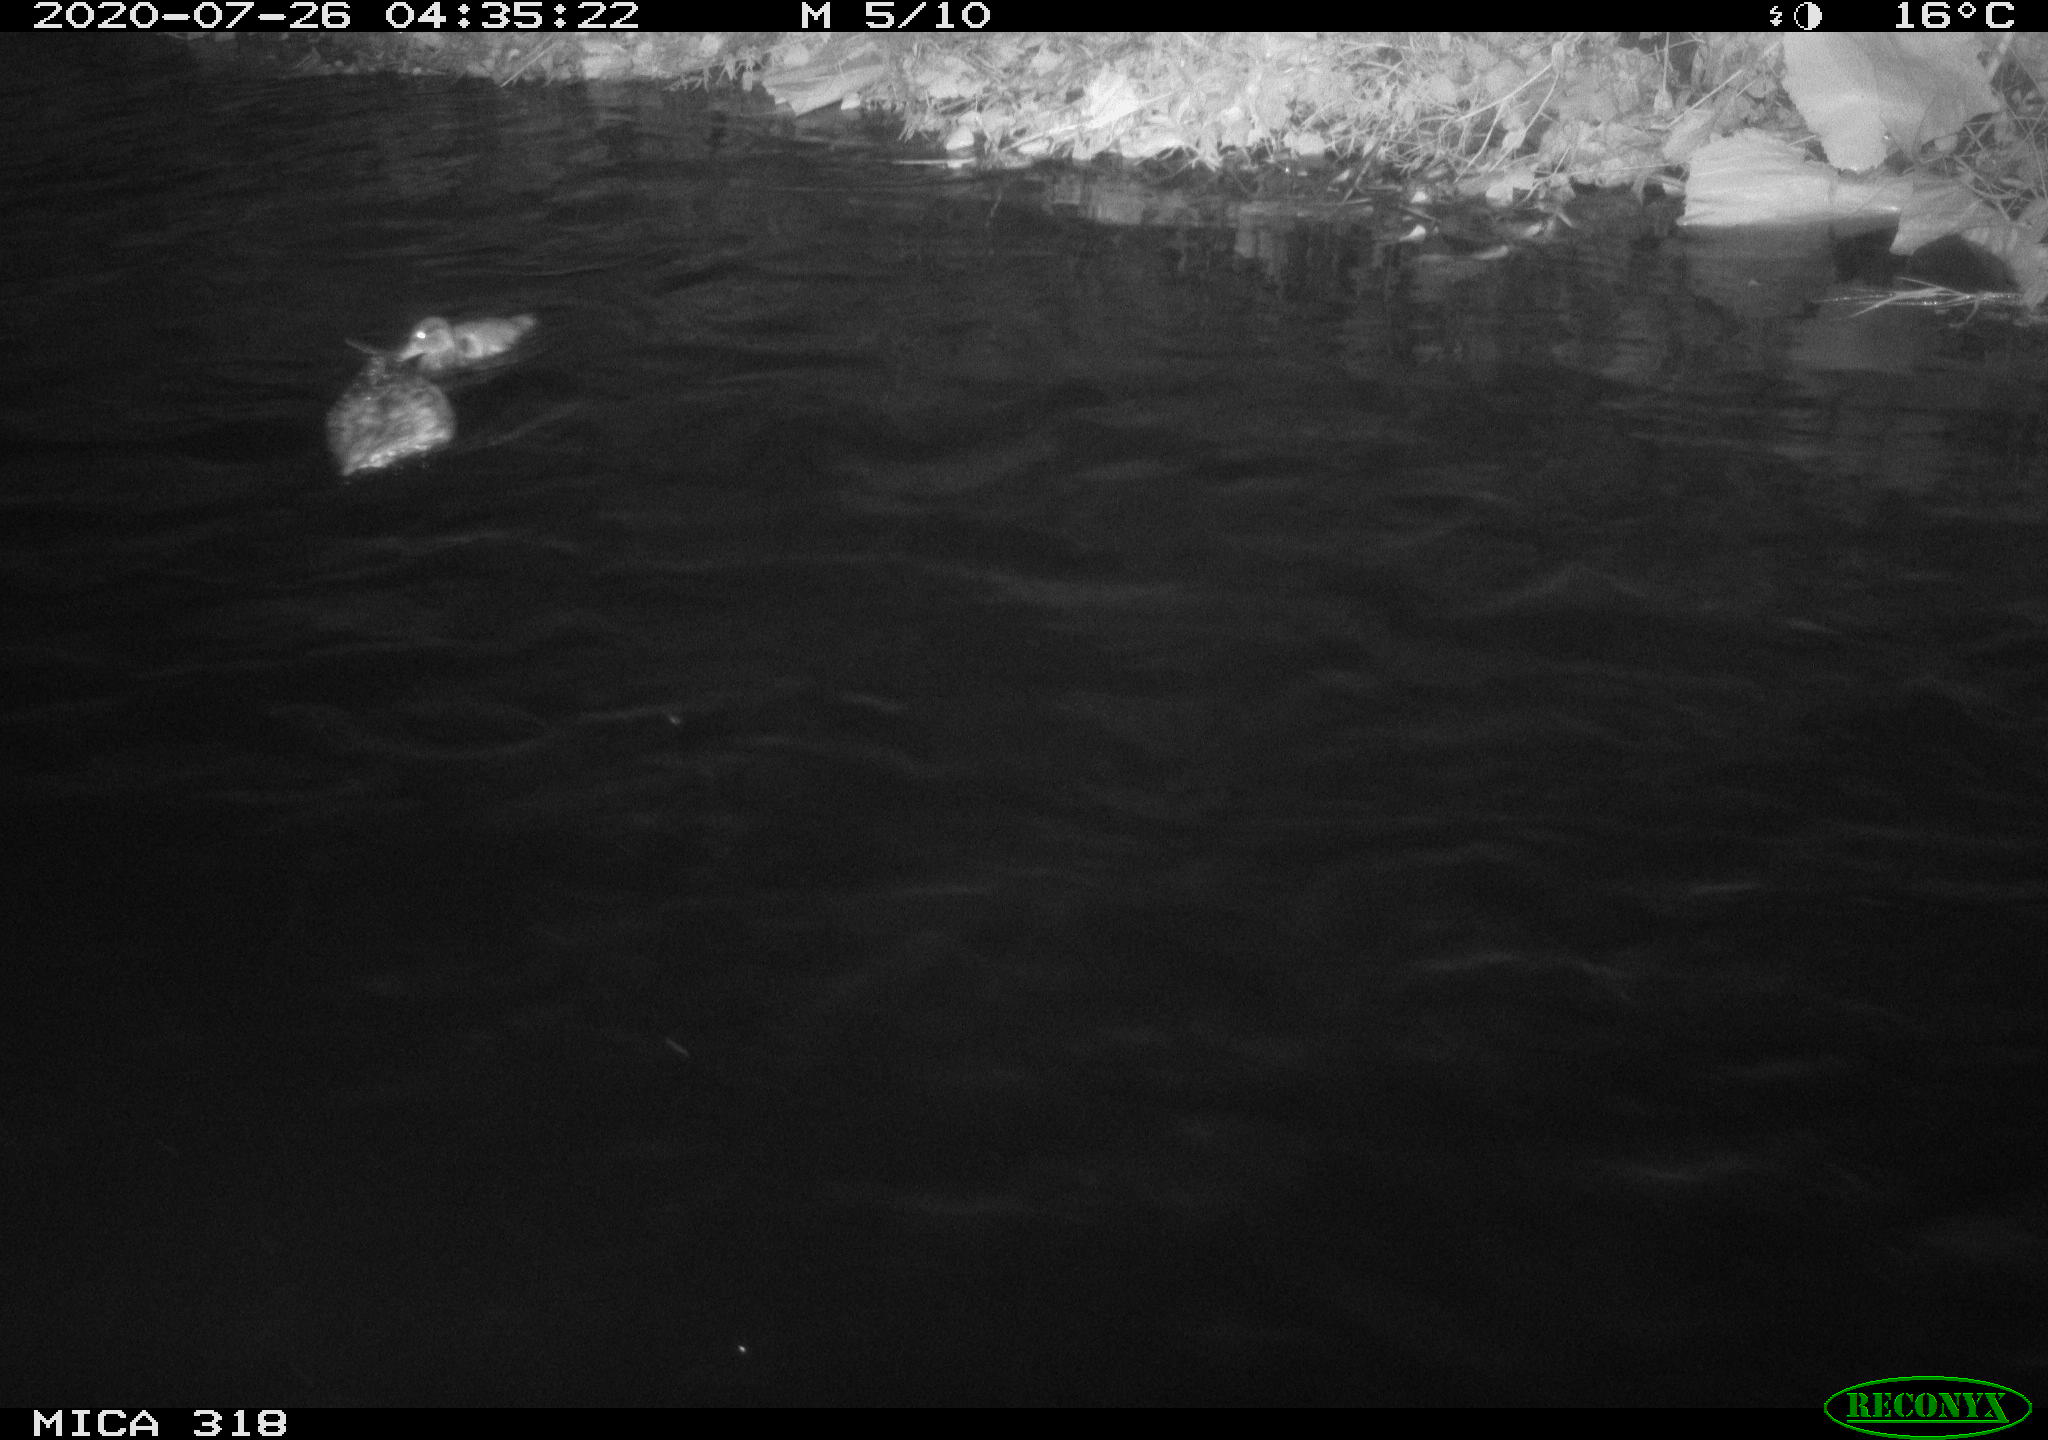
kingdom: Animalia
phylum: Chordata
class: Aves
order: Anseriformes
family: Anatidae
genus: Anas
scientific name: Anas platyrhynchos
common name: Mallard
